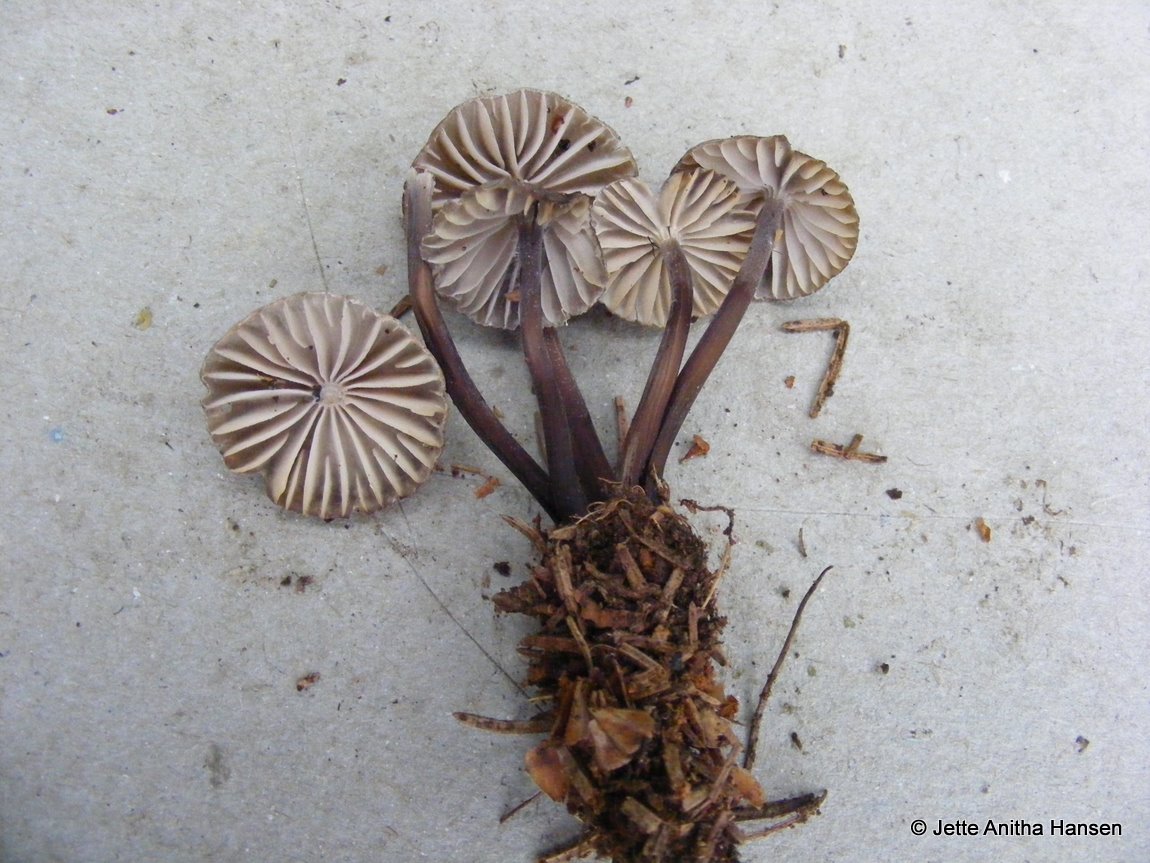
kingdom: Fungi
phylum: Basidiomycota
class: Agaricomycetes
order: Agaricales
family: Mycenaceae
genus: Mycena
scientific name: Mycena galopus
